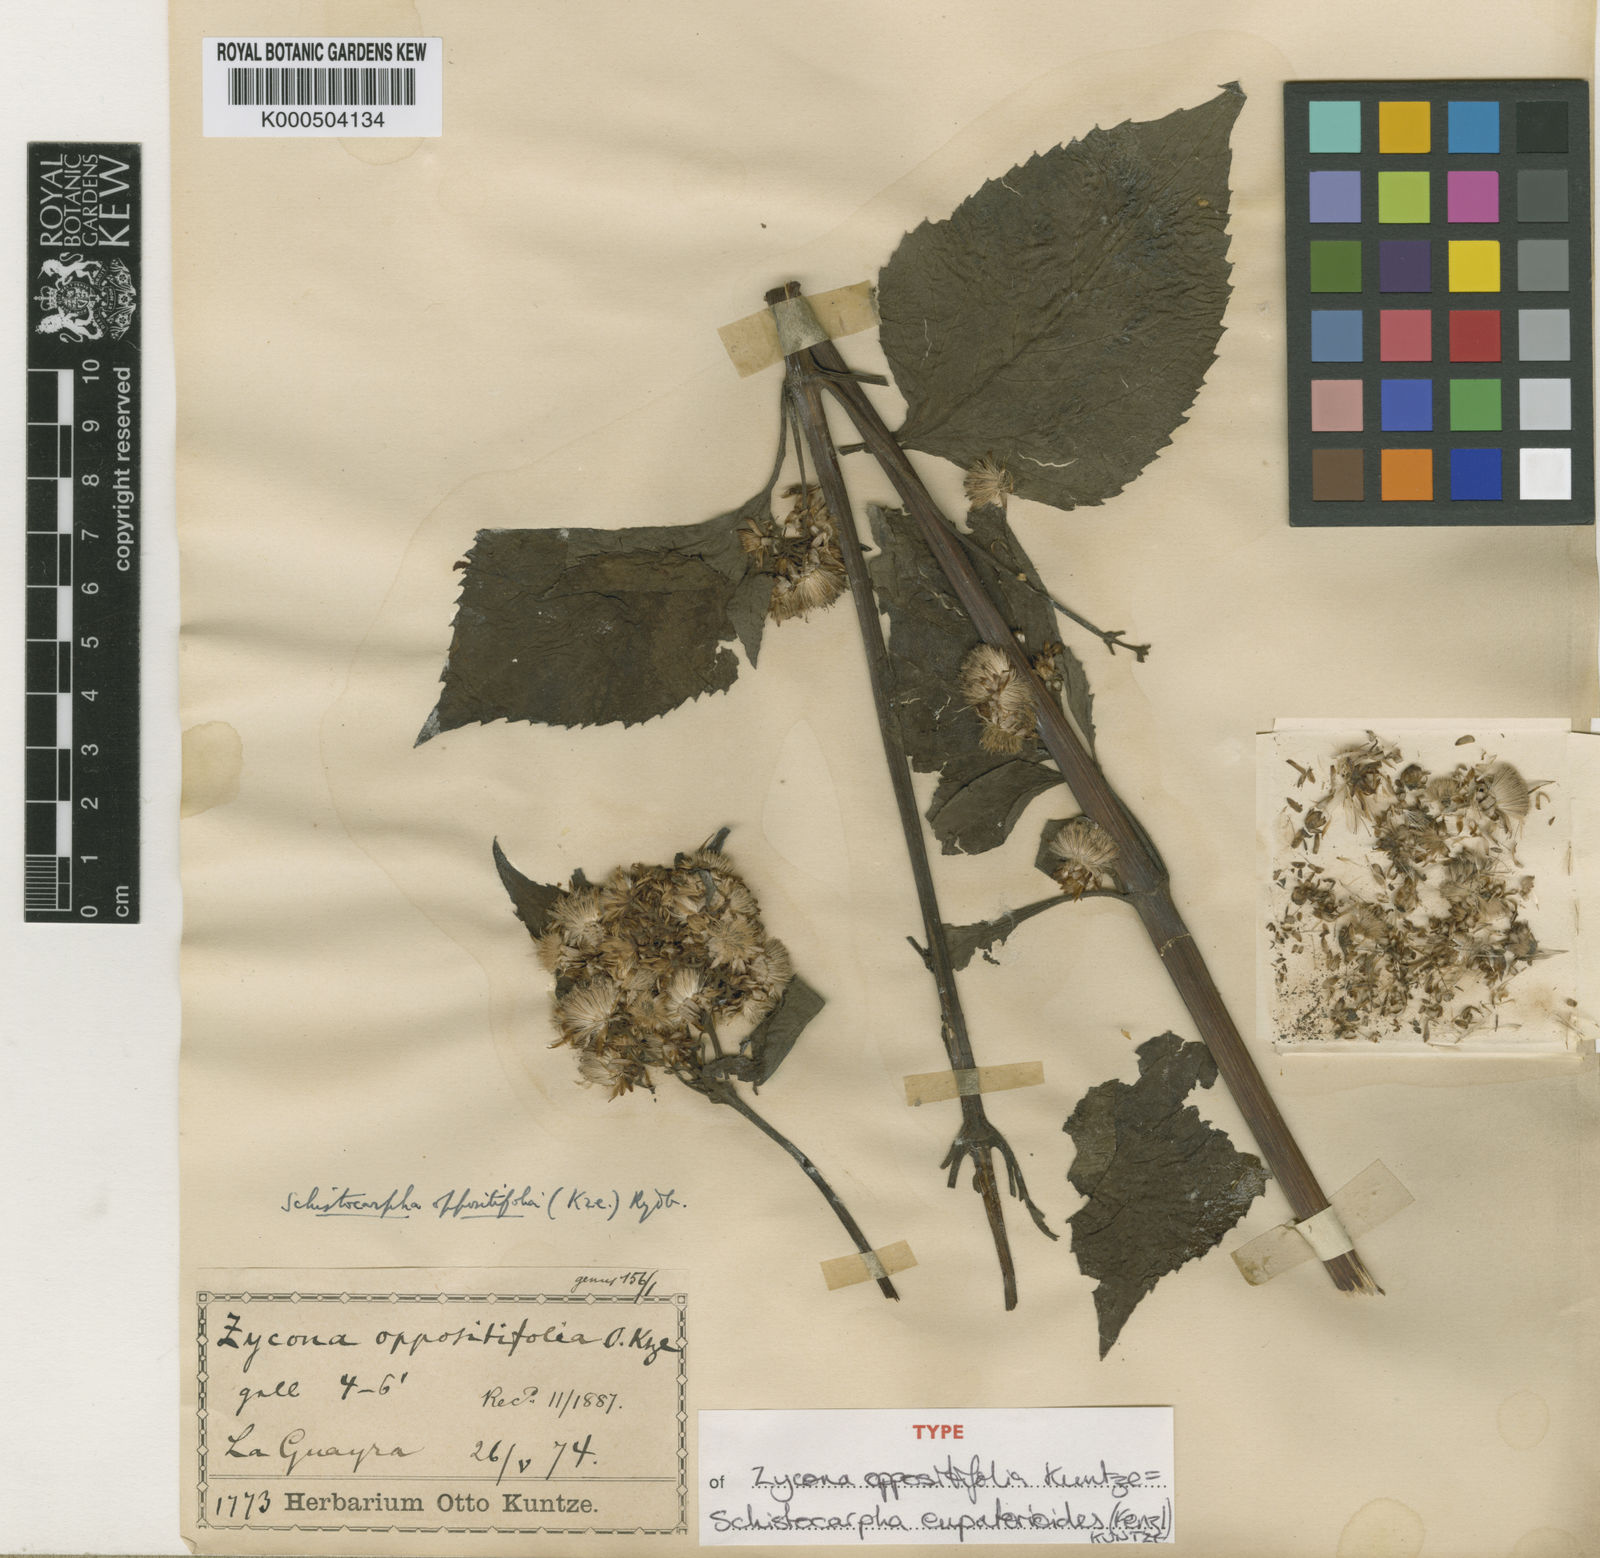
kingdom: Plantae
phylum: Tracheophyta
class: Magnoliopsida
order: Asterales
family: Asteraceae
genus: Schistocarpha
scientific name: Schistocarpha eupatorioides
